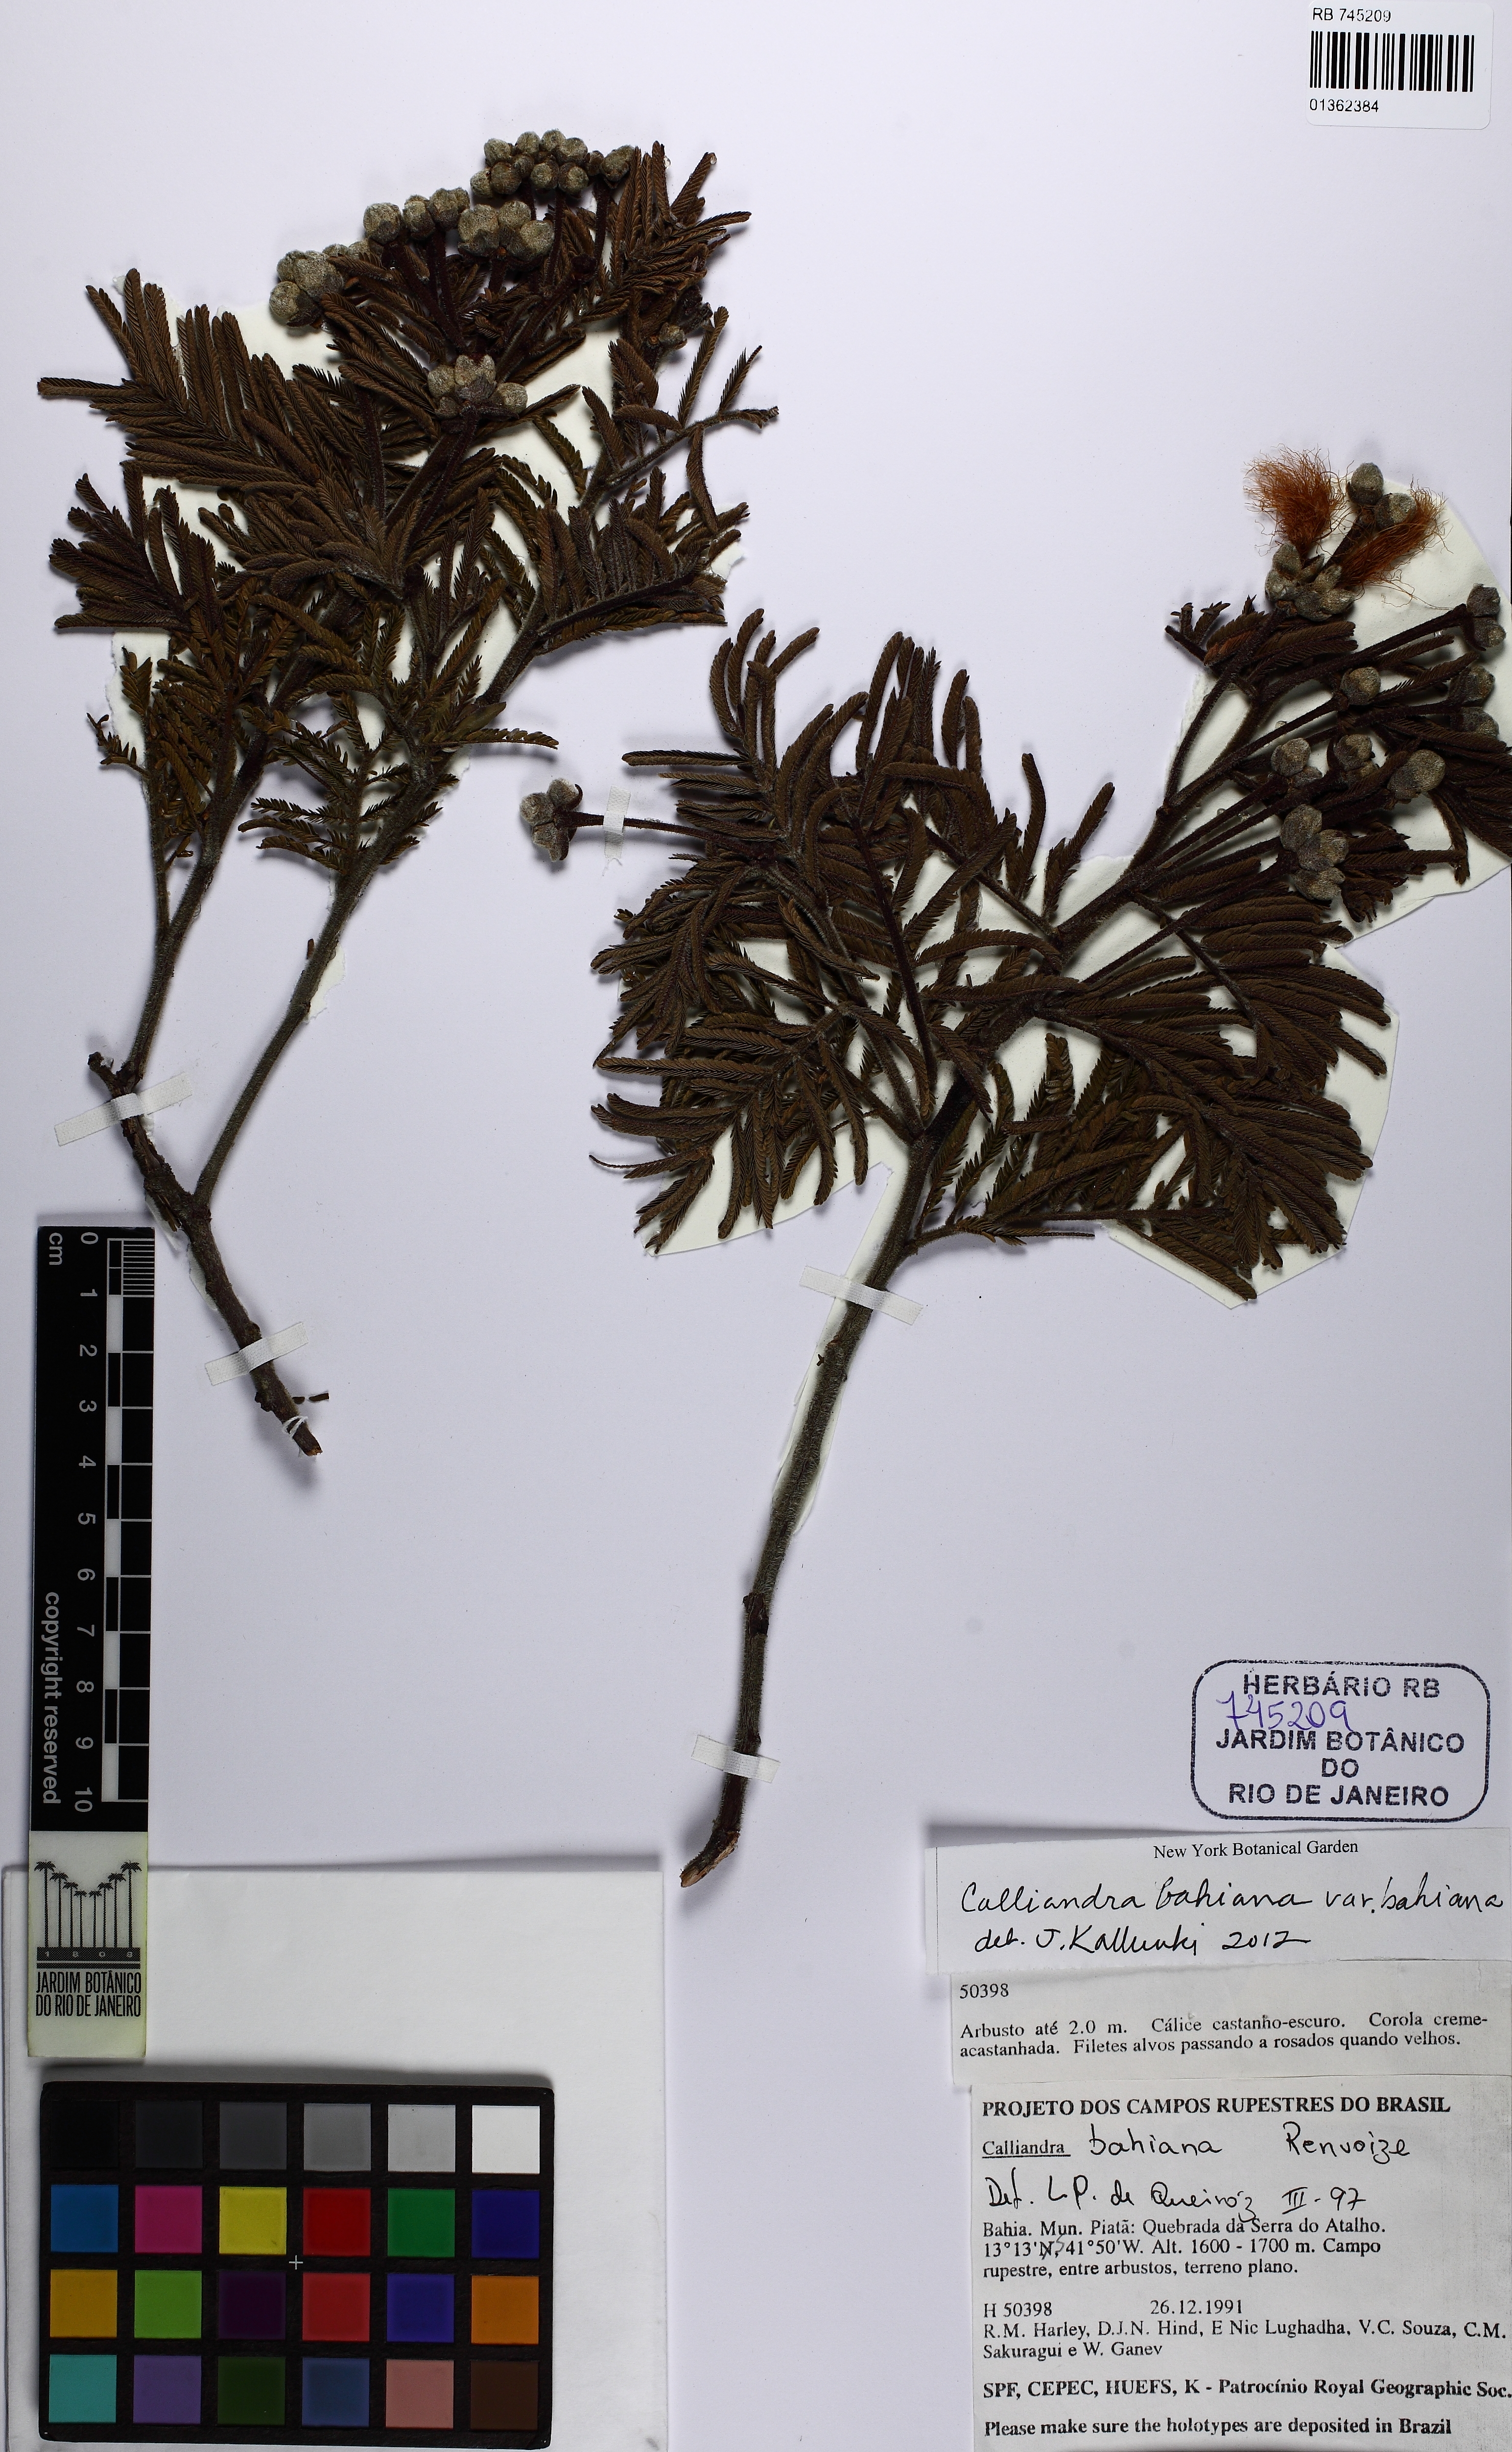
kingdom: Plantae
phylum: Tracheophyta
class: Magnoliopsida
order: Fabales
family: Fabaceae
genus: Calliandra
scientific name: Calliandra bahiana
